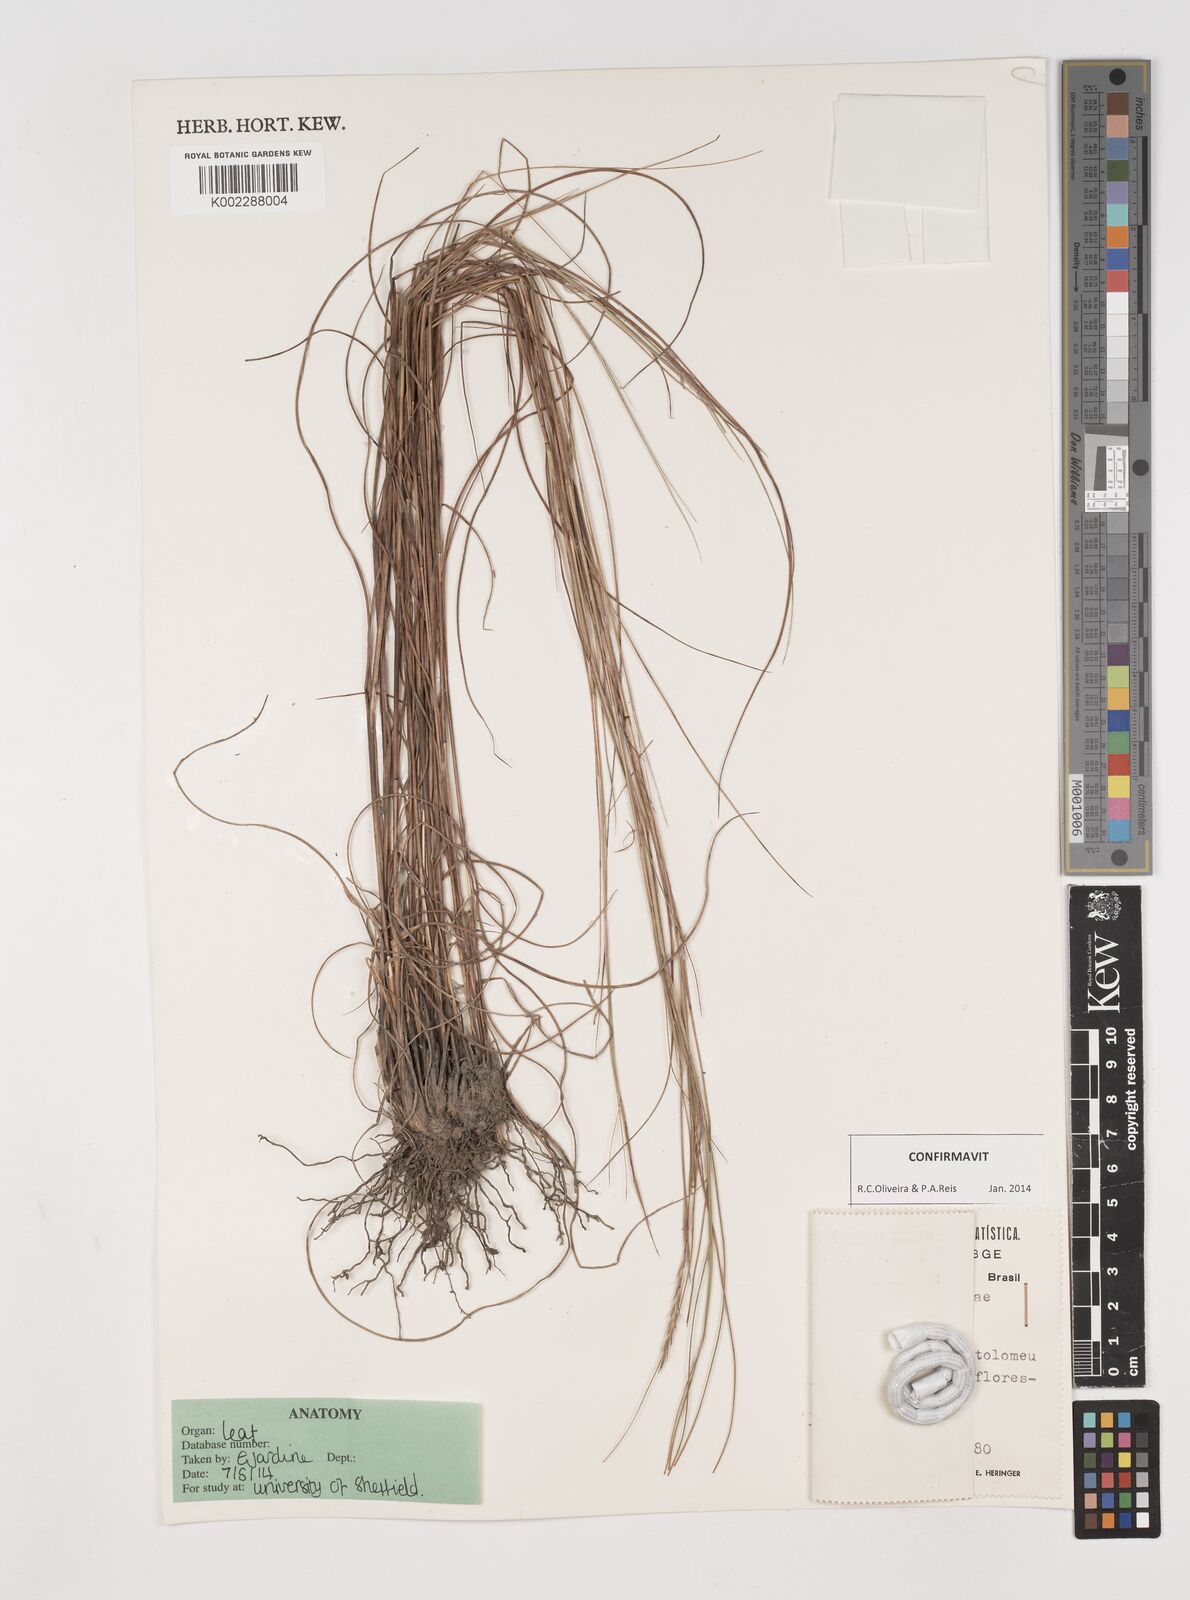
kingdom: Plantae
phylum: Tracheophyta
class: Liliopsida
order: Poales
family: Poaceae
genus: Andropogon
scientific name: Andropogon tener
